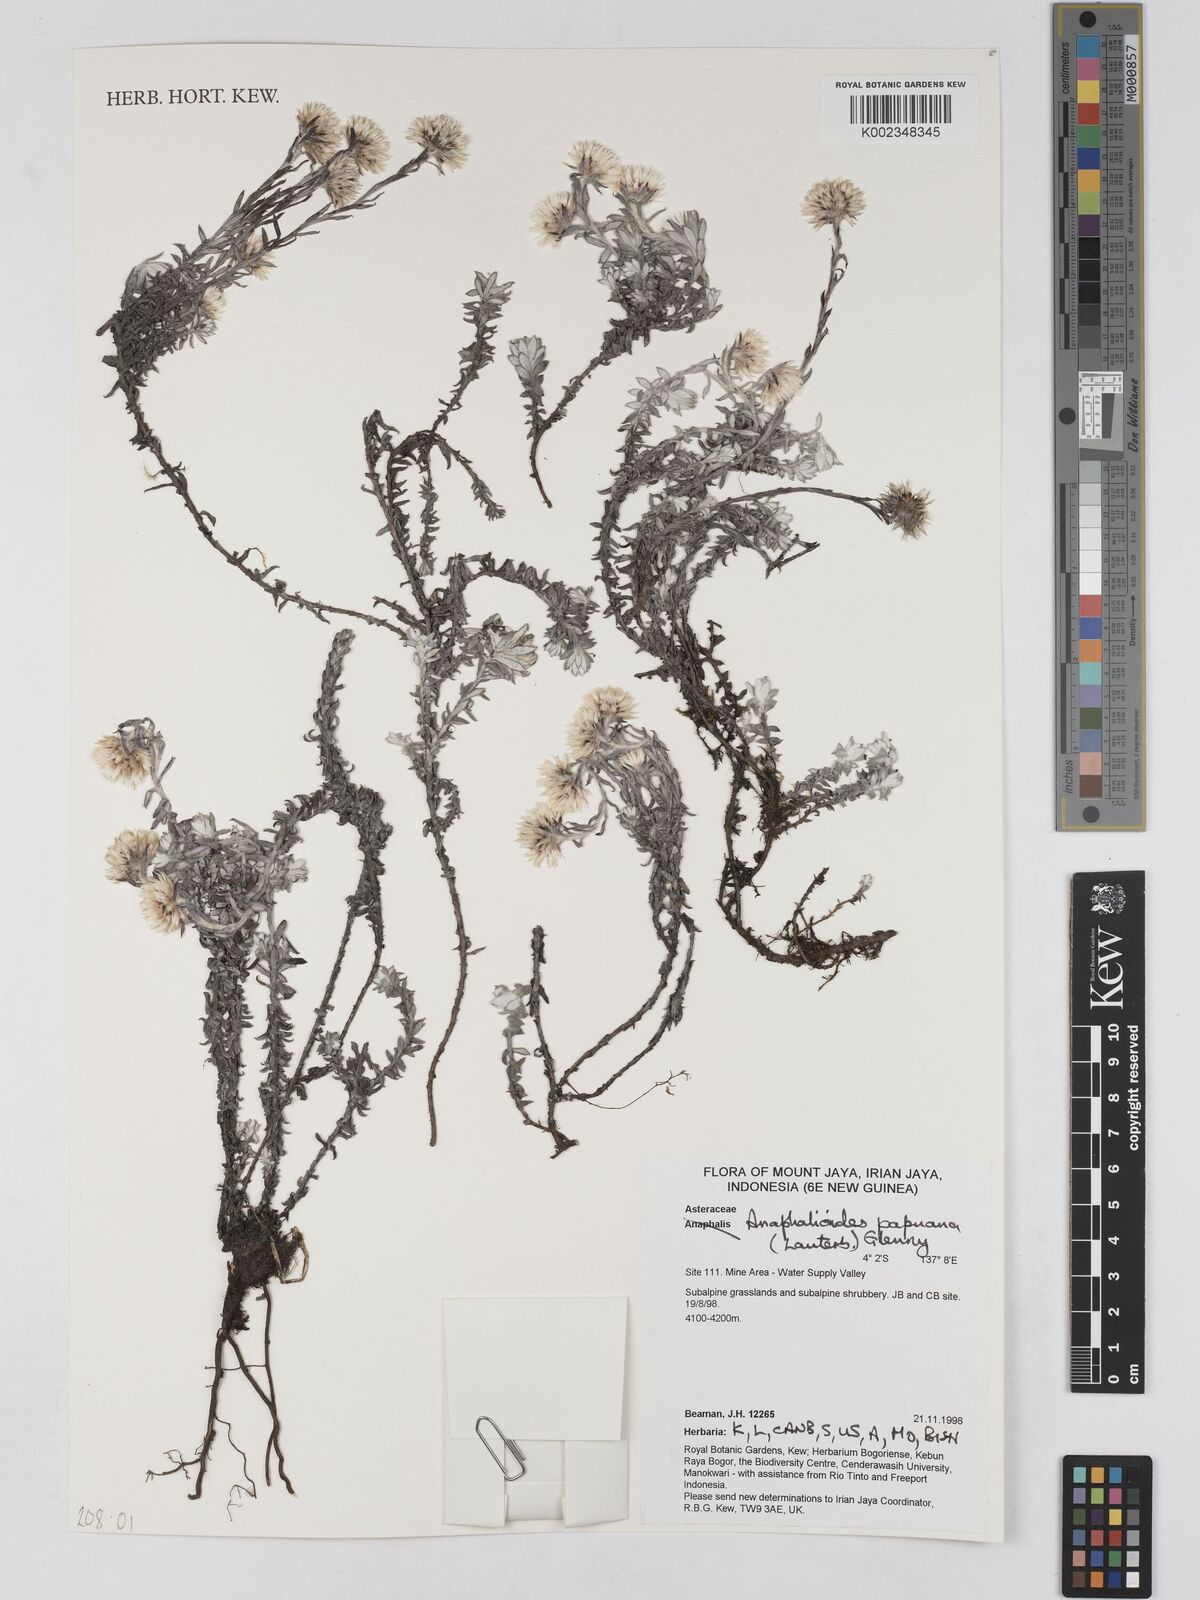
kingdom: Plantae
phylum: Tracheophyta
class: Magnoliopsida
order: Asterales
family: Asteraceae
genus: Anaphalioides
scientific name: Anaphalioides papuana
